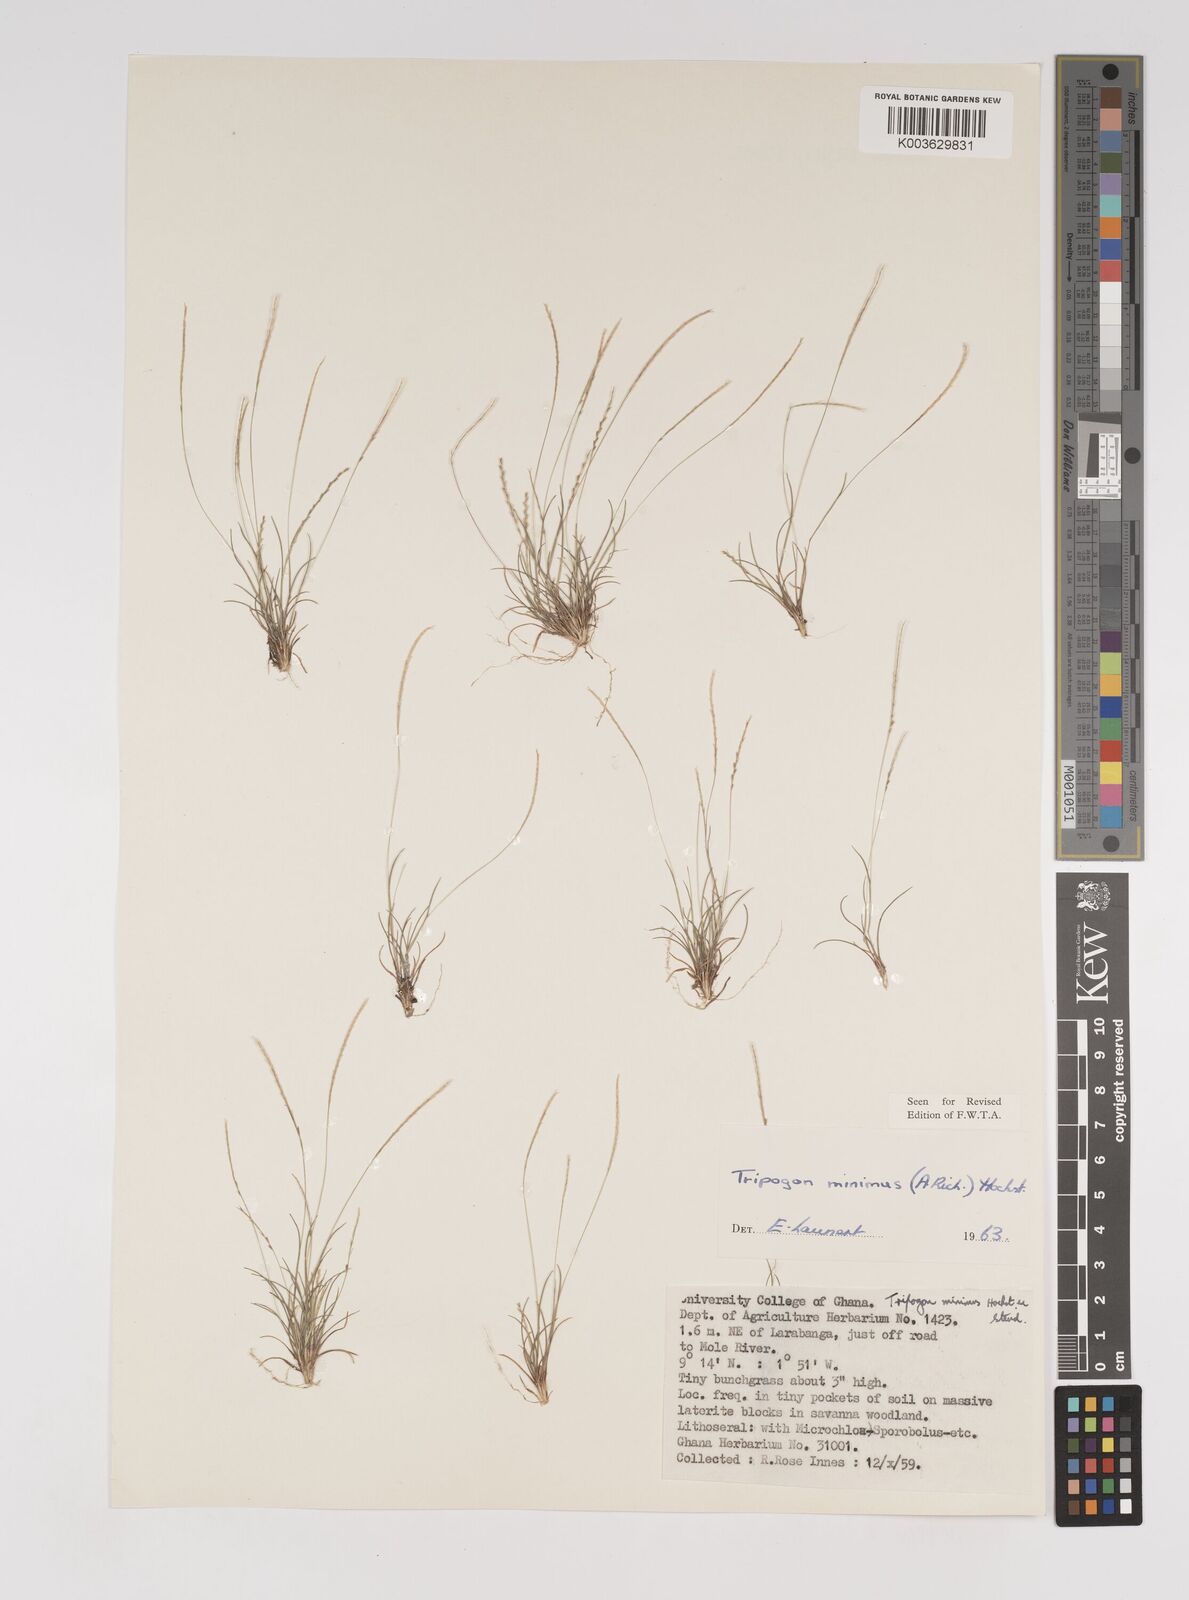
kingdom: Plantae
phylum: Tracheophyta
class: Liliopsida
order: Poales
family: Poaceae
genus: Tripogonella
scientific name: Tripogonella minima
